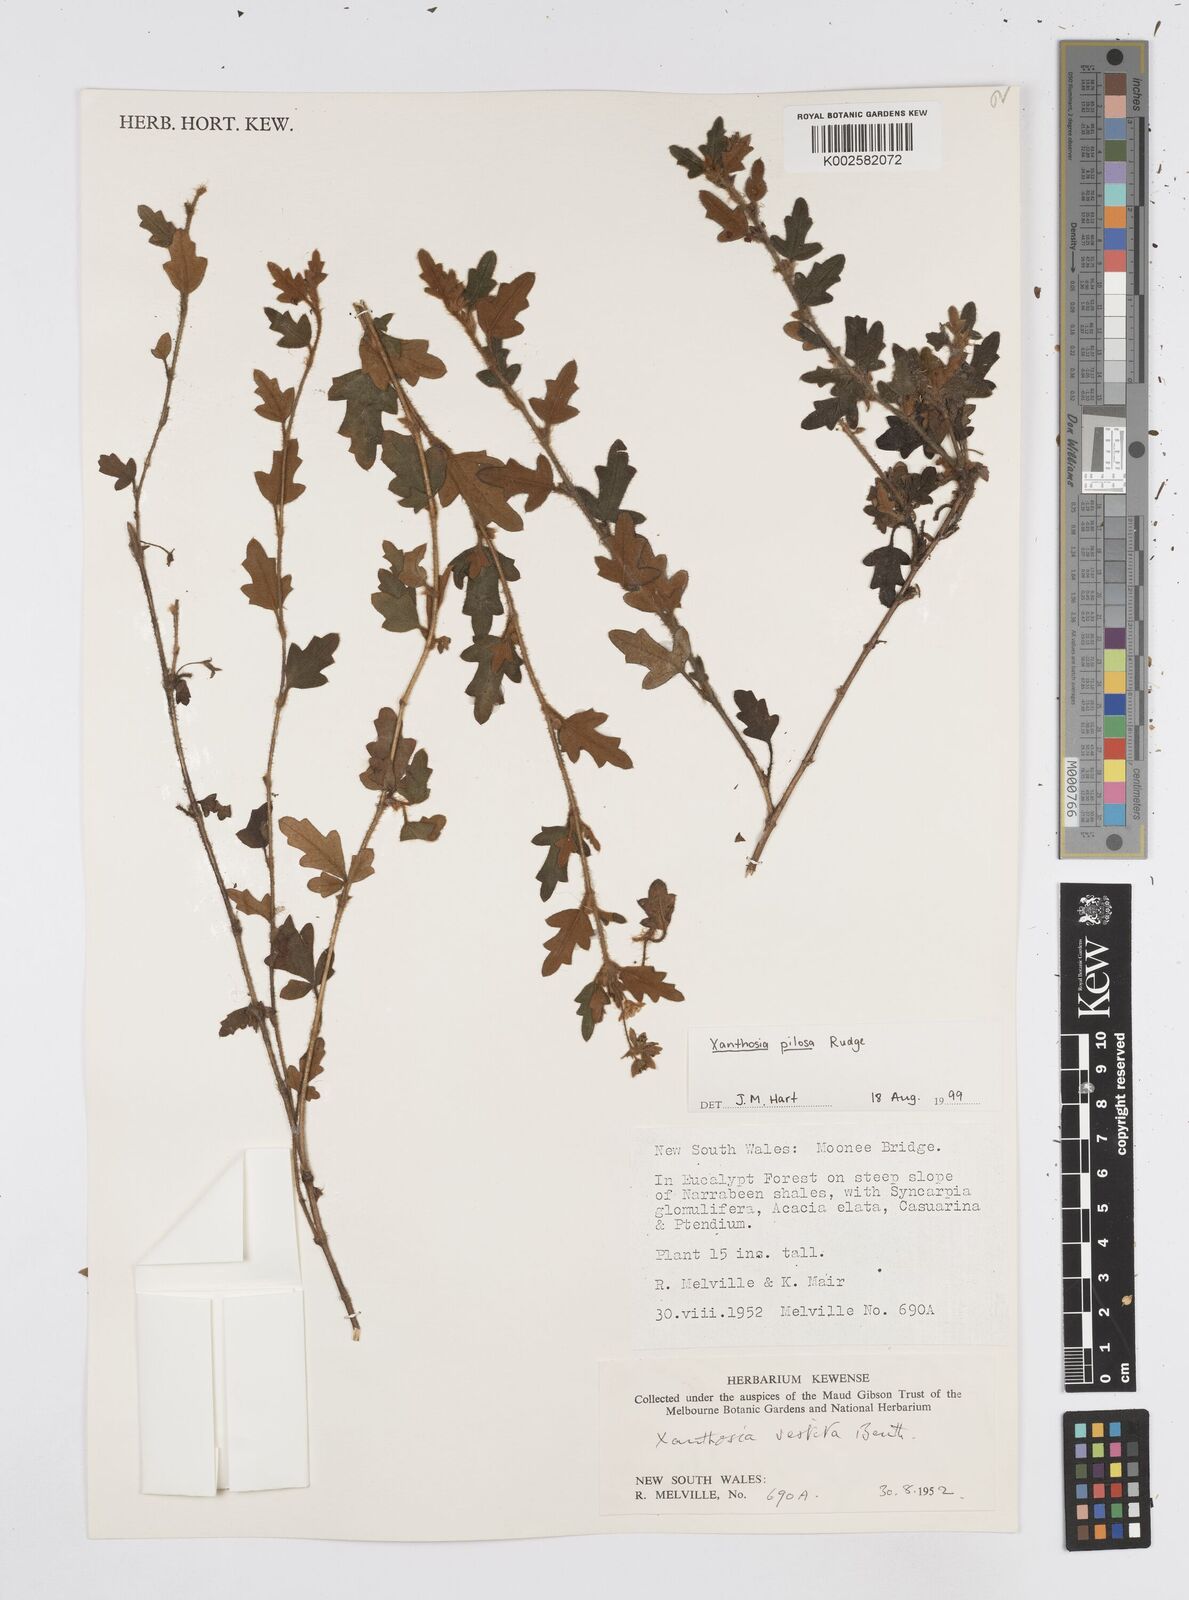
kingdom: Plantae
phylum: Tracheophyta
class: Magnoliopsida
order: Apiales
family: Apiaceae
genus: Xanthosia
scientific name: Xanthosia pilosa
